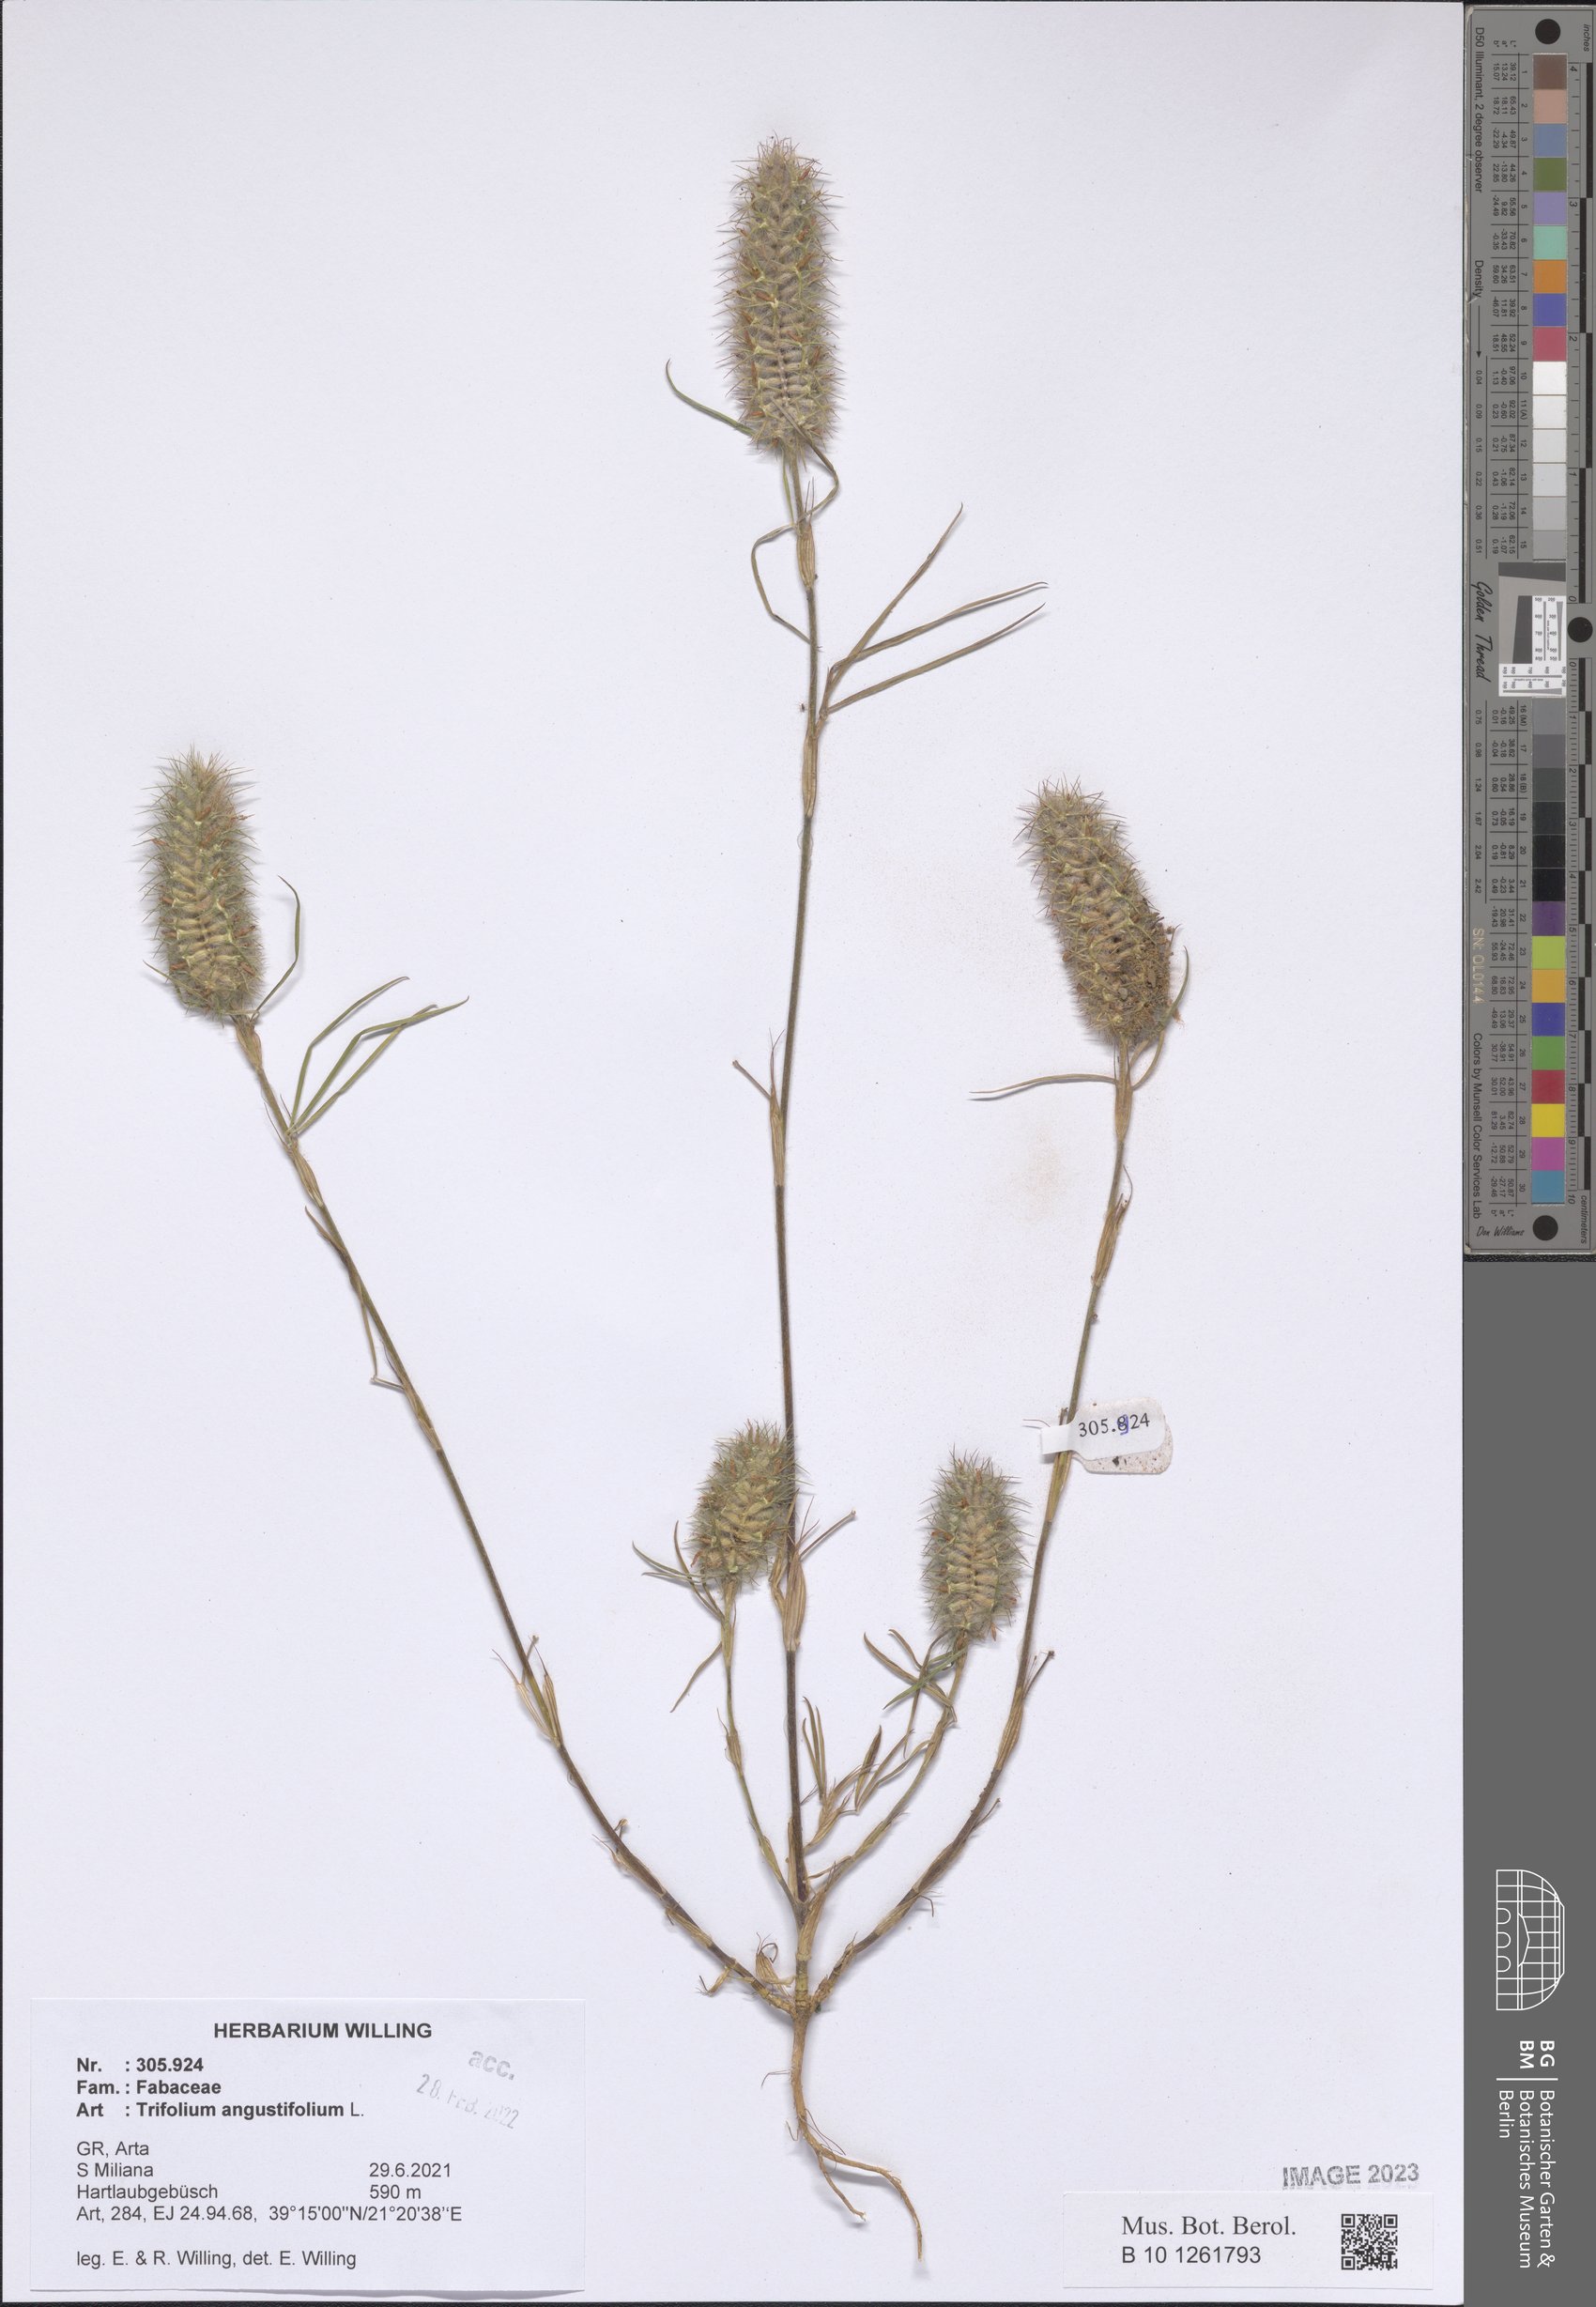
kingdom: Plantae
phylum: Tracheophyta
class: Magnoliopsida
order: Fabales
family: Fabaceae
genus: Trifolium
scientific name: Trifolium angustifolium
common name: Narrow clover
